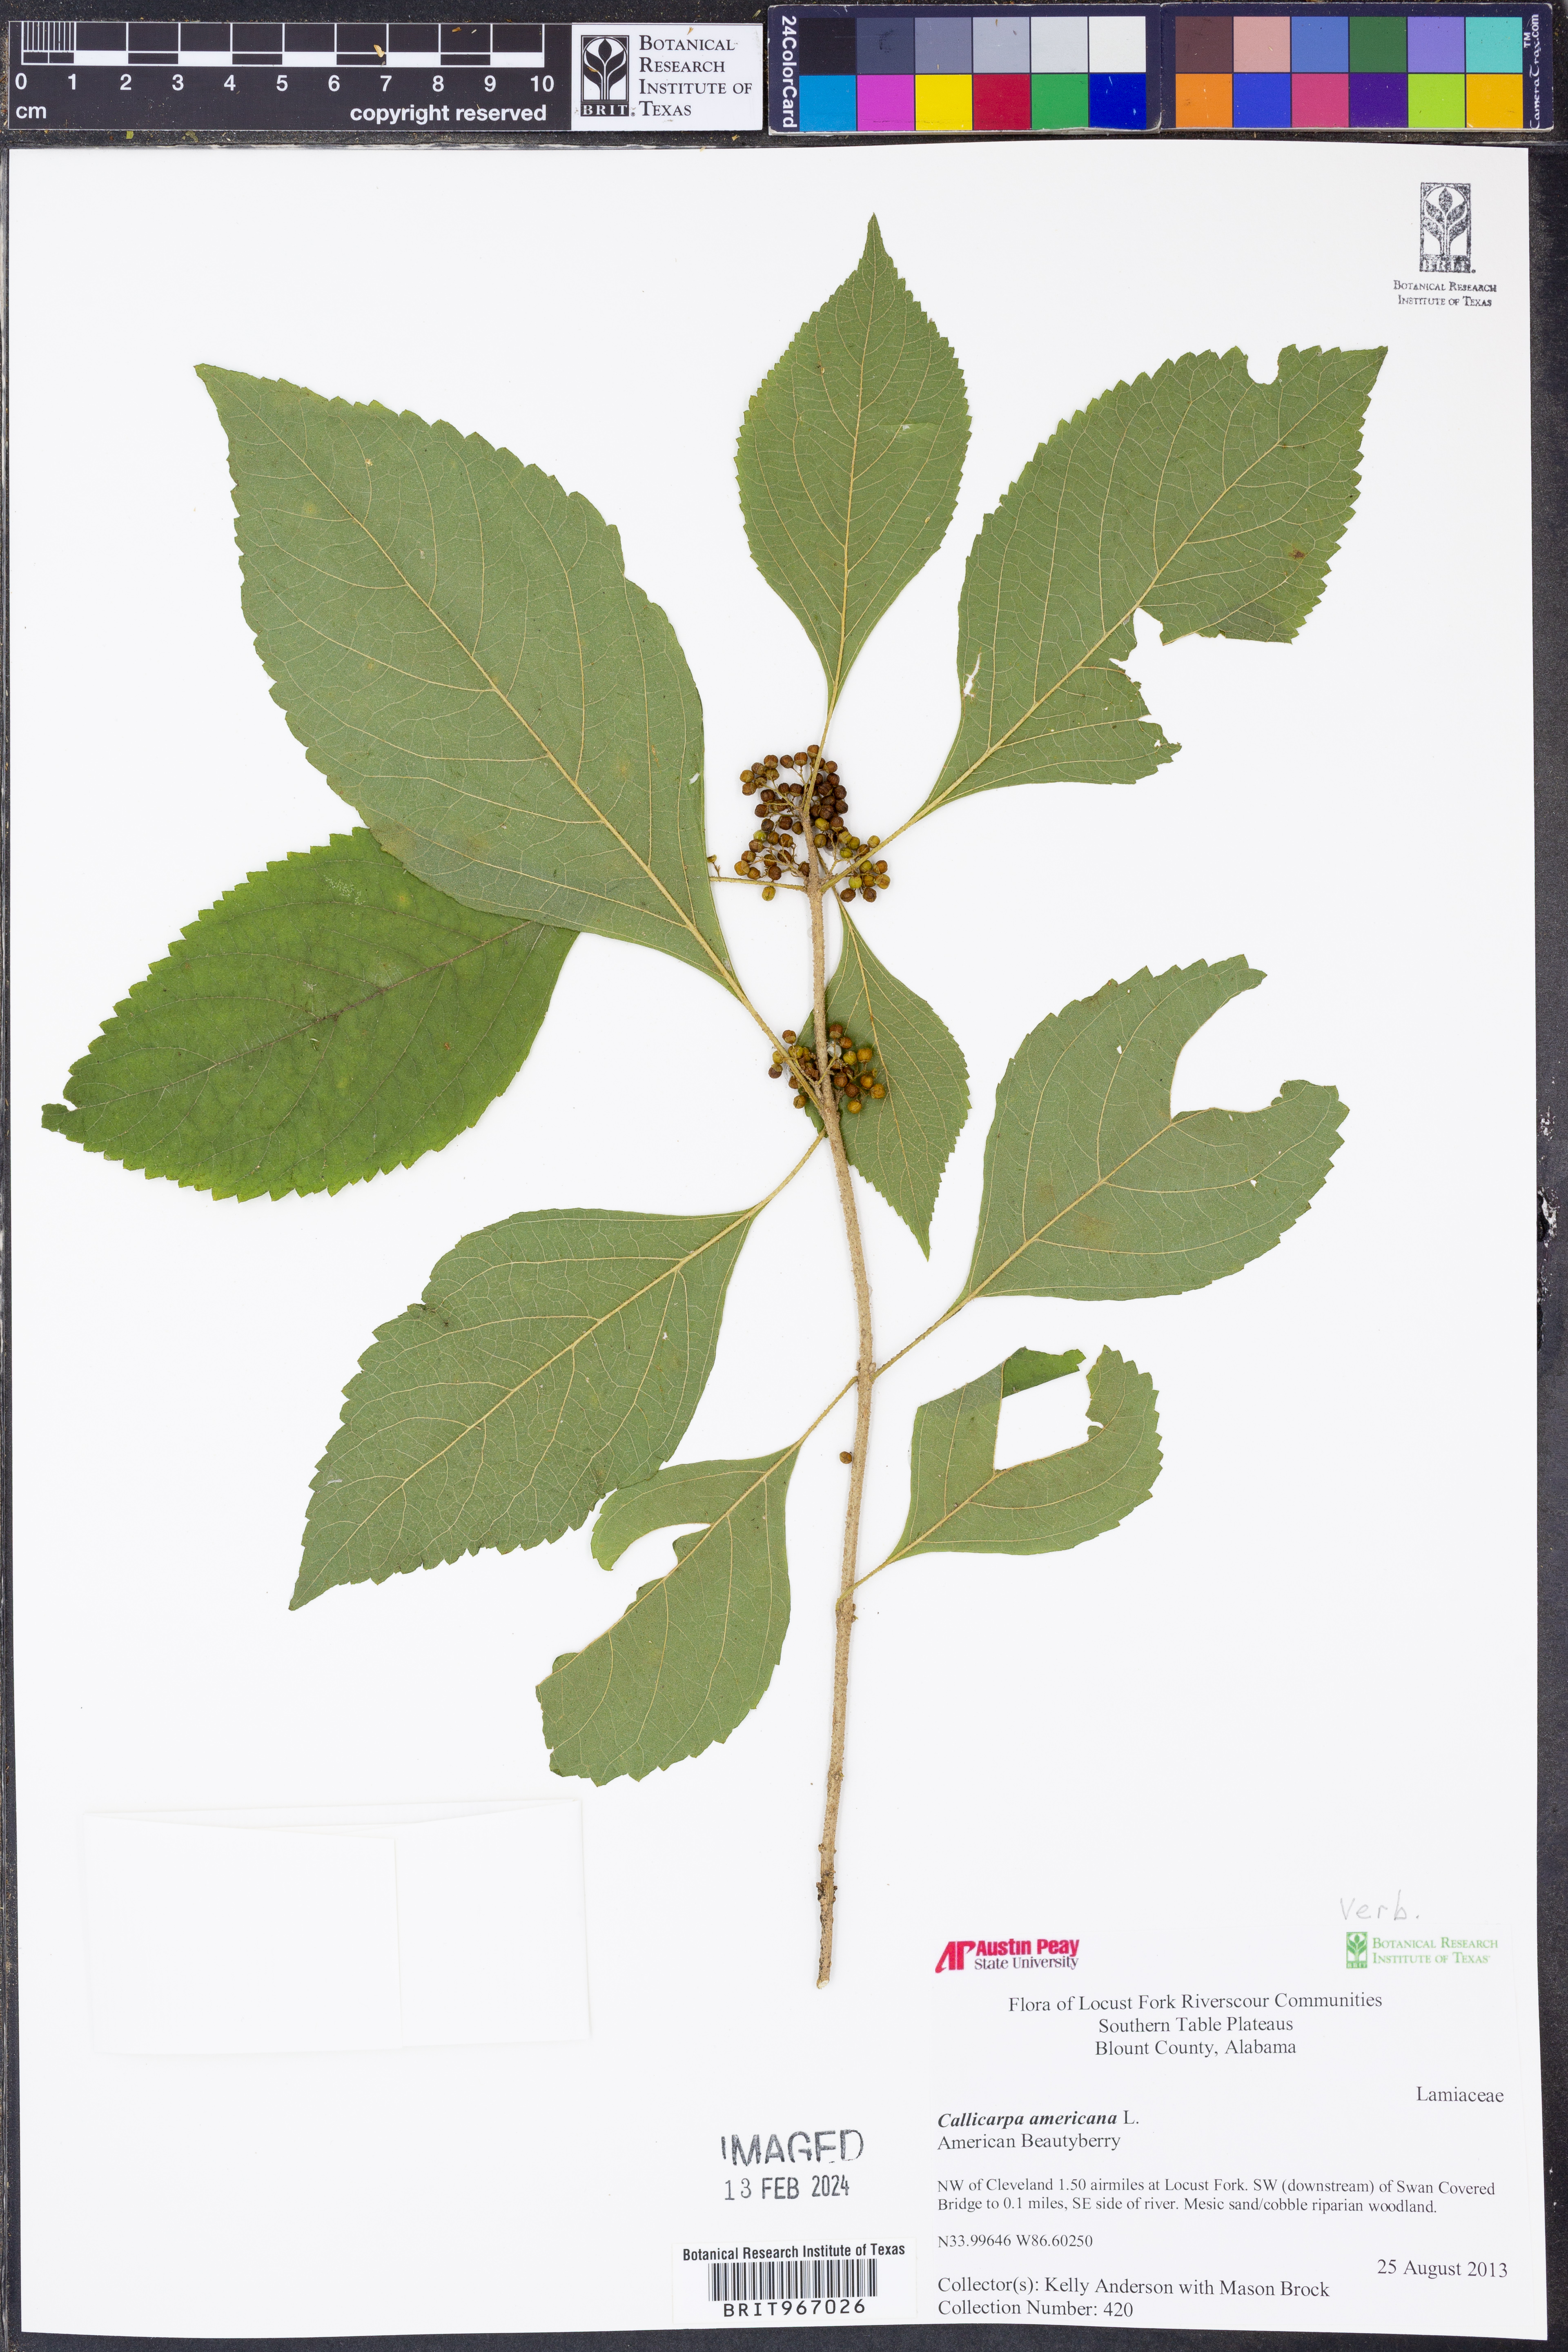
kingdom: Plantae
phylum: Tracheophyta
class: Magnoliopsida
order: Lamiales
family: Lamiaceae
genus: Callicarpa
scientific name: Callicarpa americana
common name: American beautyberry
